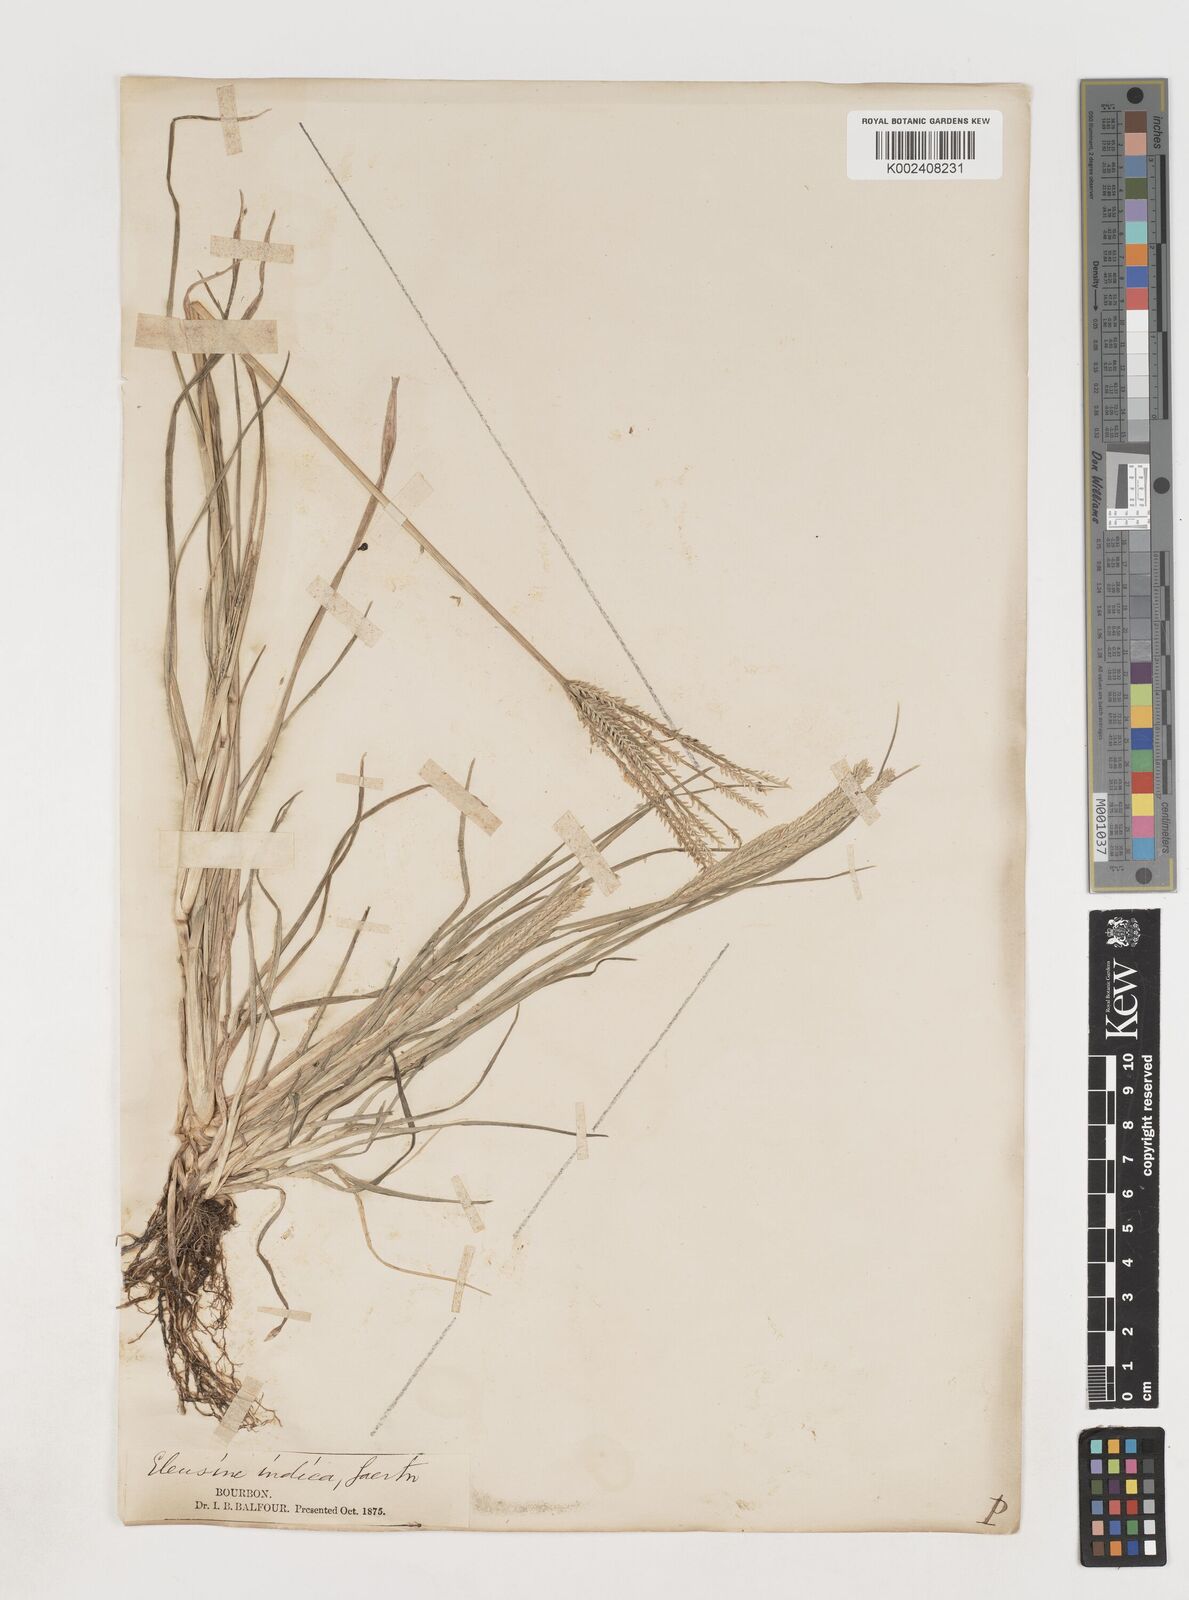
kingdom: Plantae
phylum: Tracheophyta
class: Liliopsida
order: Poales
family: Poaceae
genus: Eleusine
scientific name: Eleusine africana
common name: Wild african finger millet
